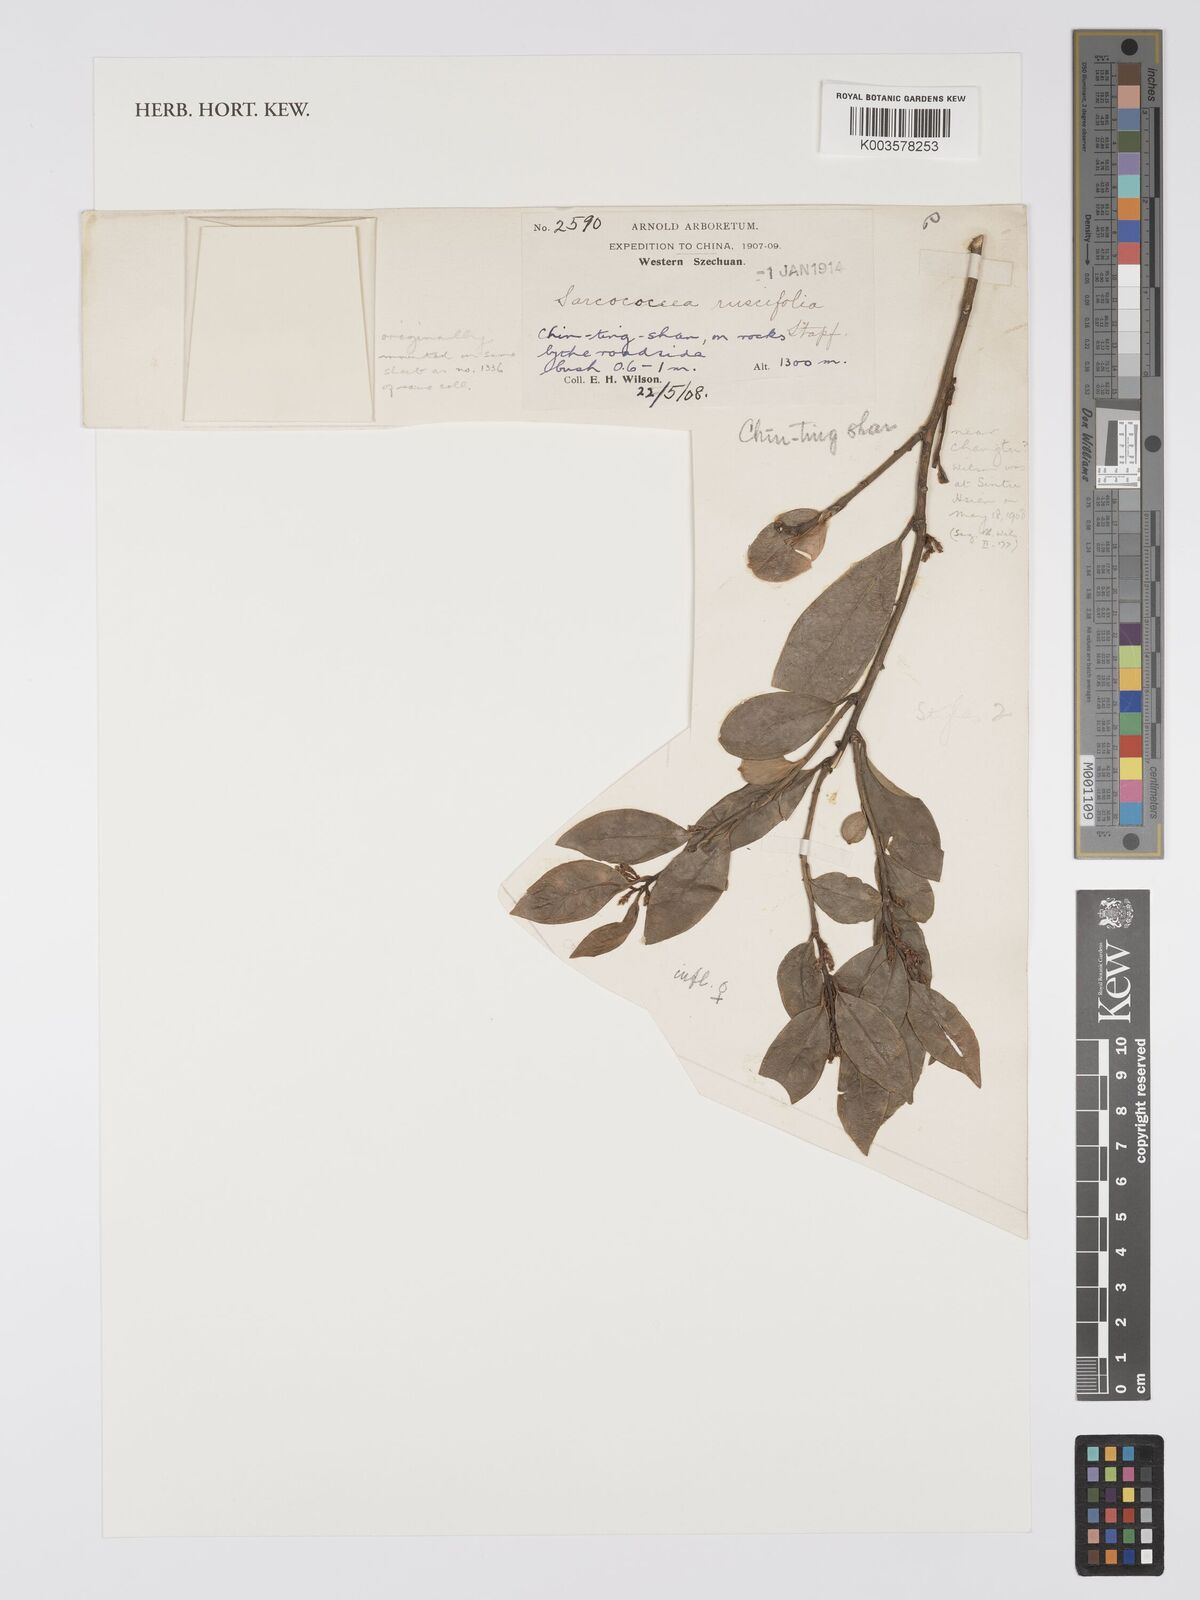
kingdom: Plantae
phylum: Tracheophyta
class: Magnoliopsida
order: Buxales
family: Buxaceae
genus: Sarcococca
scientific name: Sarcococca ruscifolia
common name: Fragrant sweet-box
